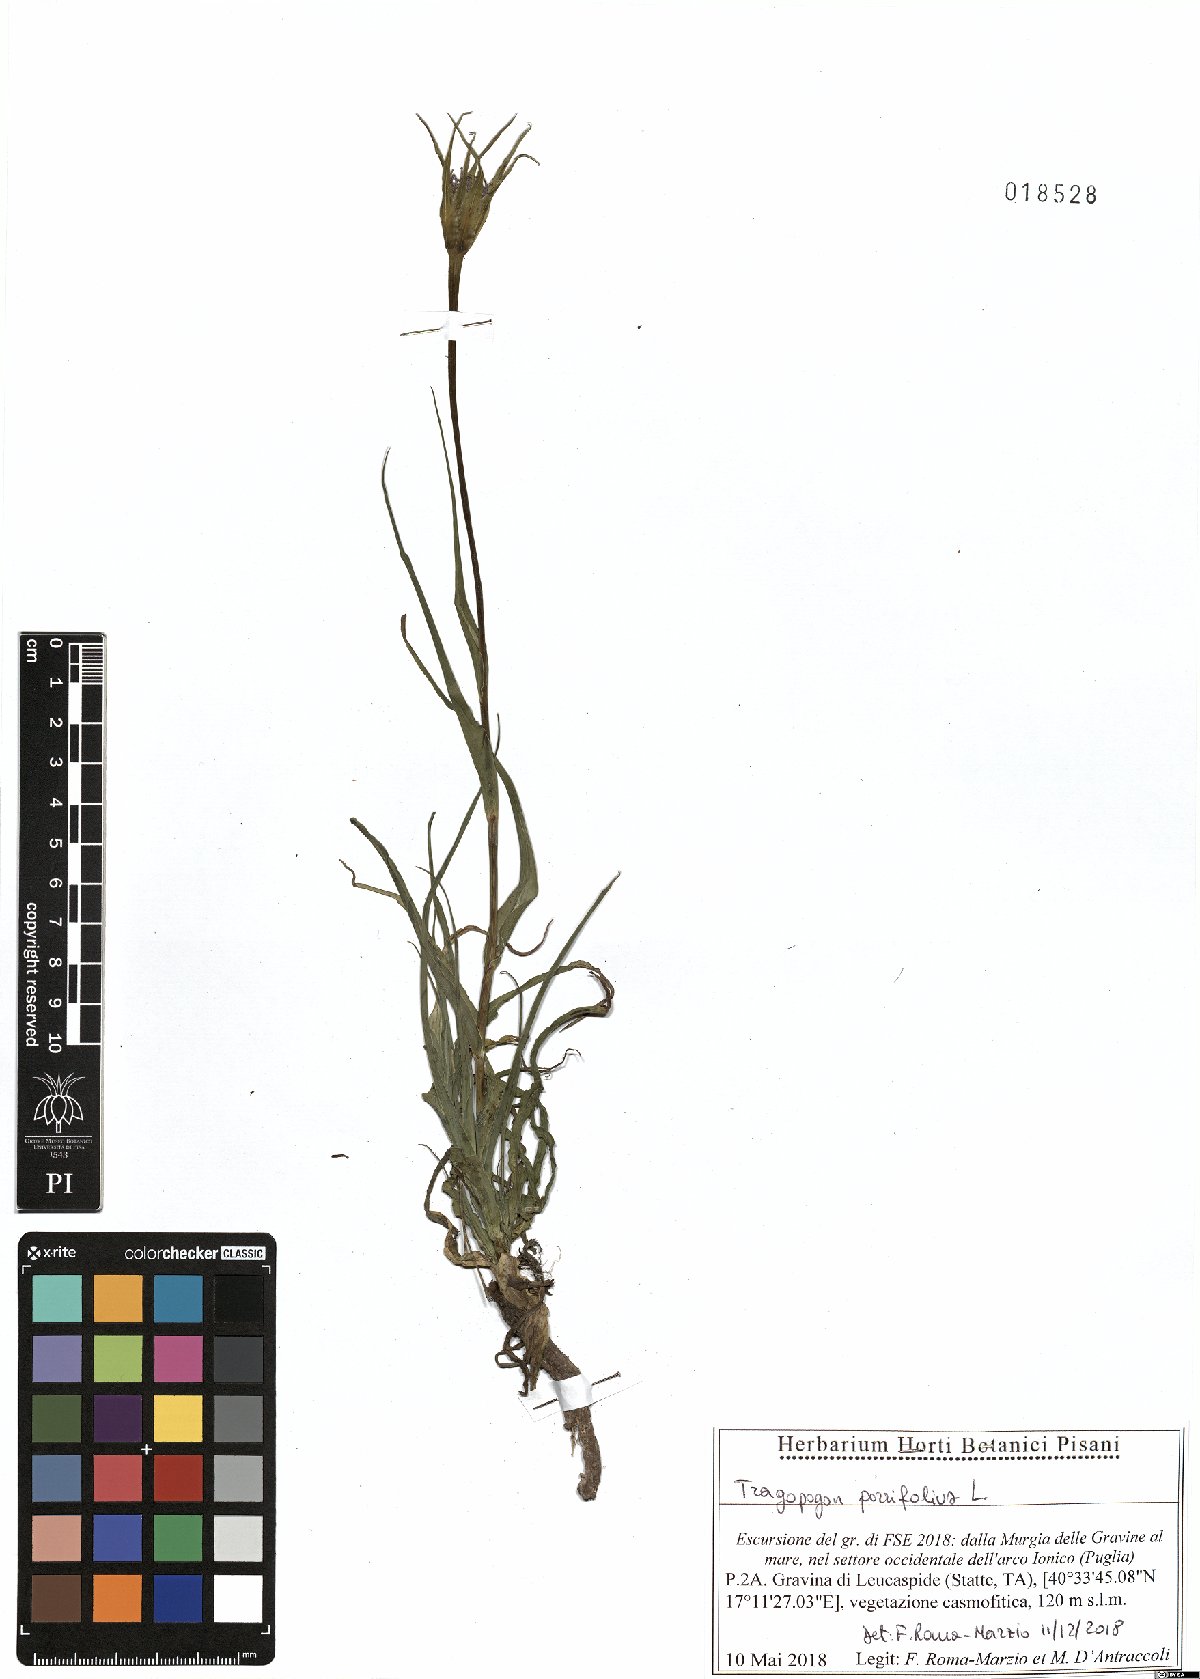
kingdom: Plantae
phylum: Tracheophyta
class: Magnoliopsida
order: Asterales
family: Asteraceae
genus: Tragopogon
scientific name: Tragopogon porrifolius
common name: Salsify
